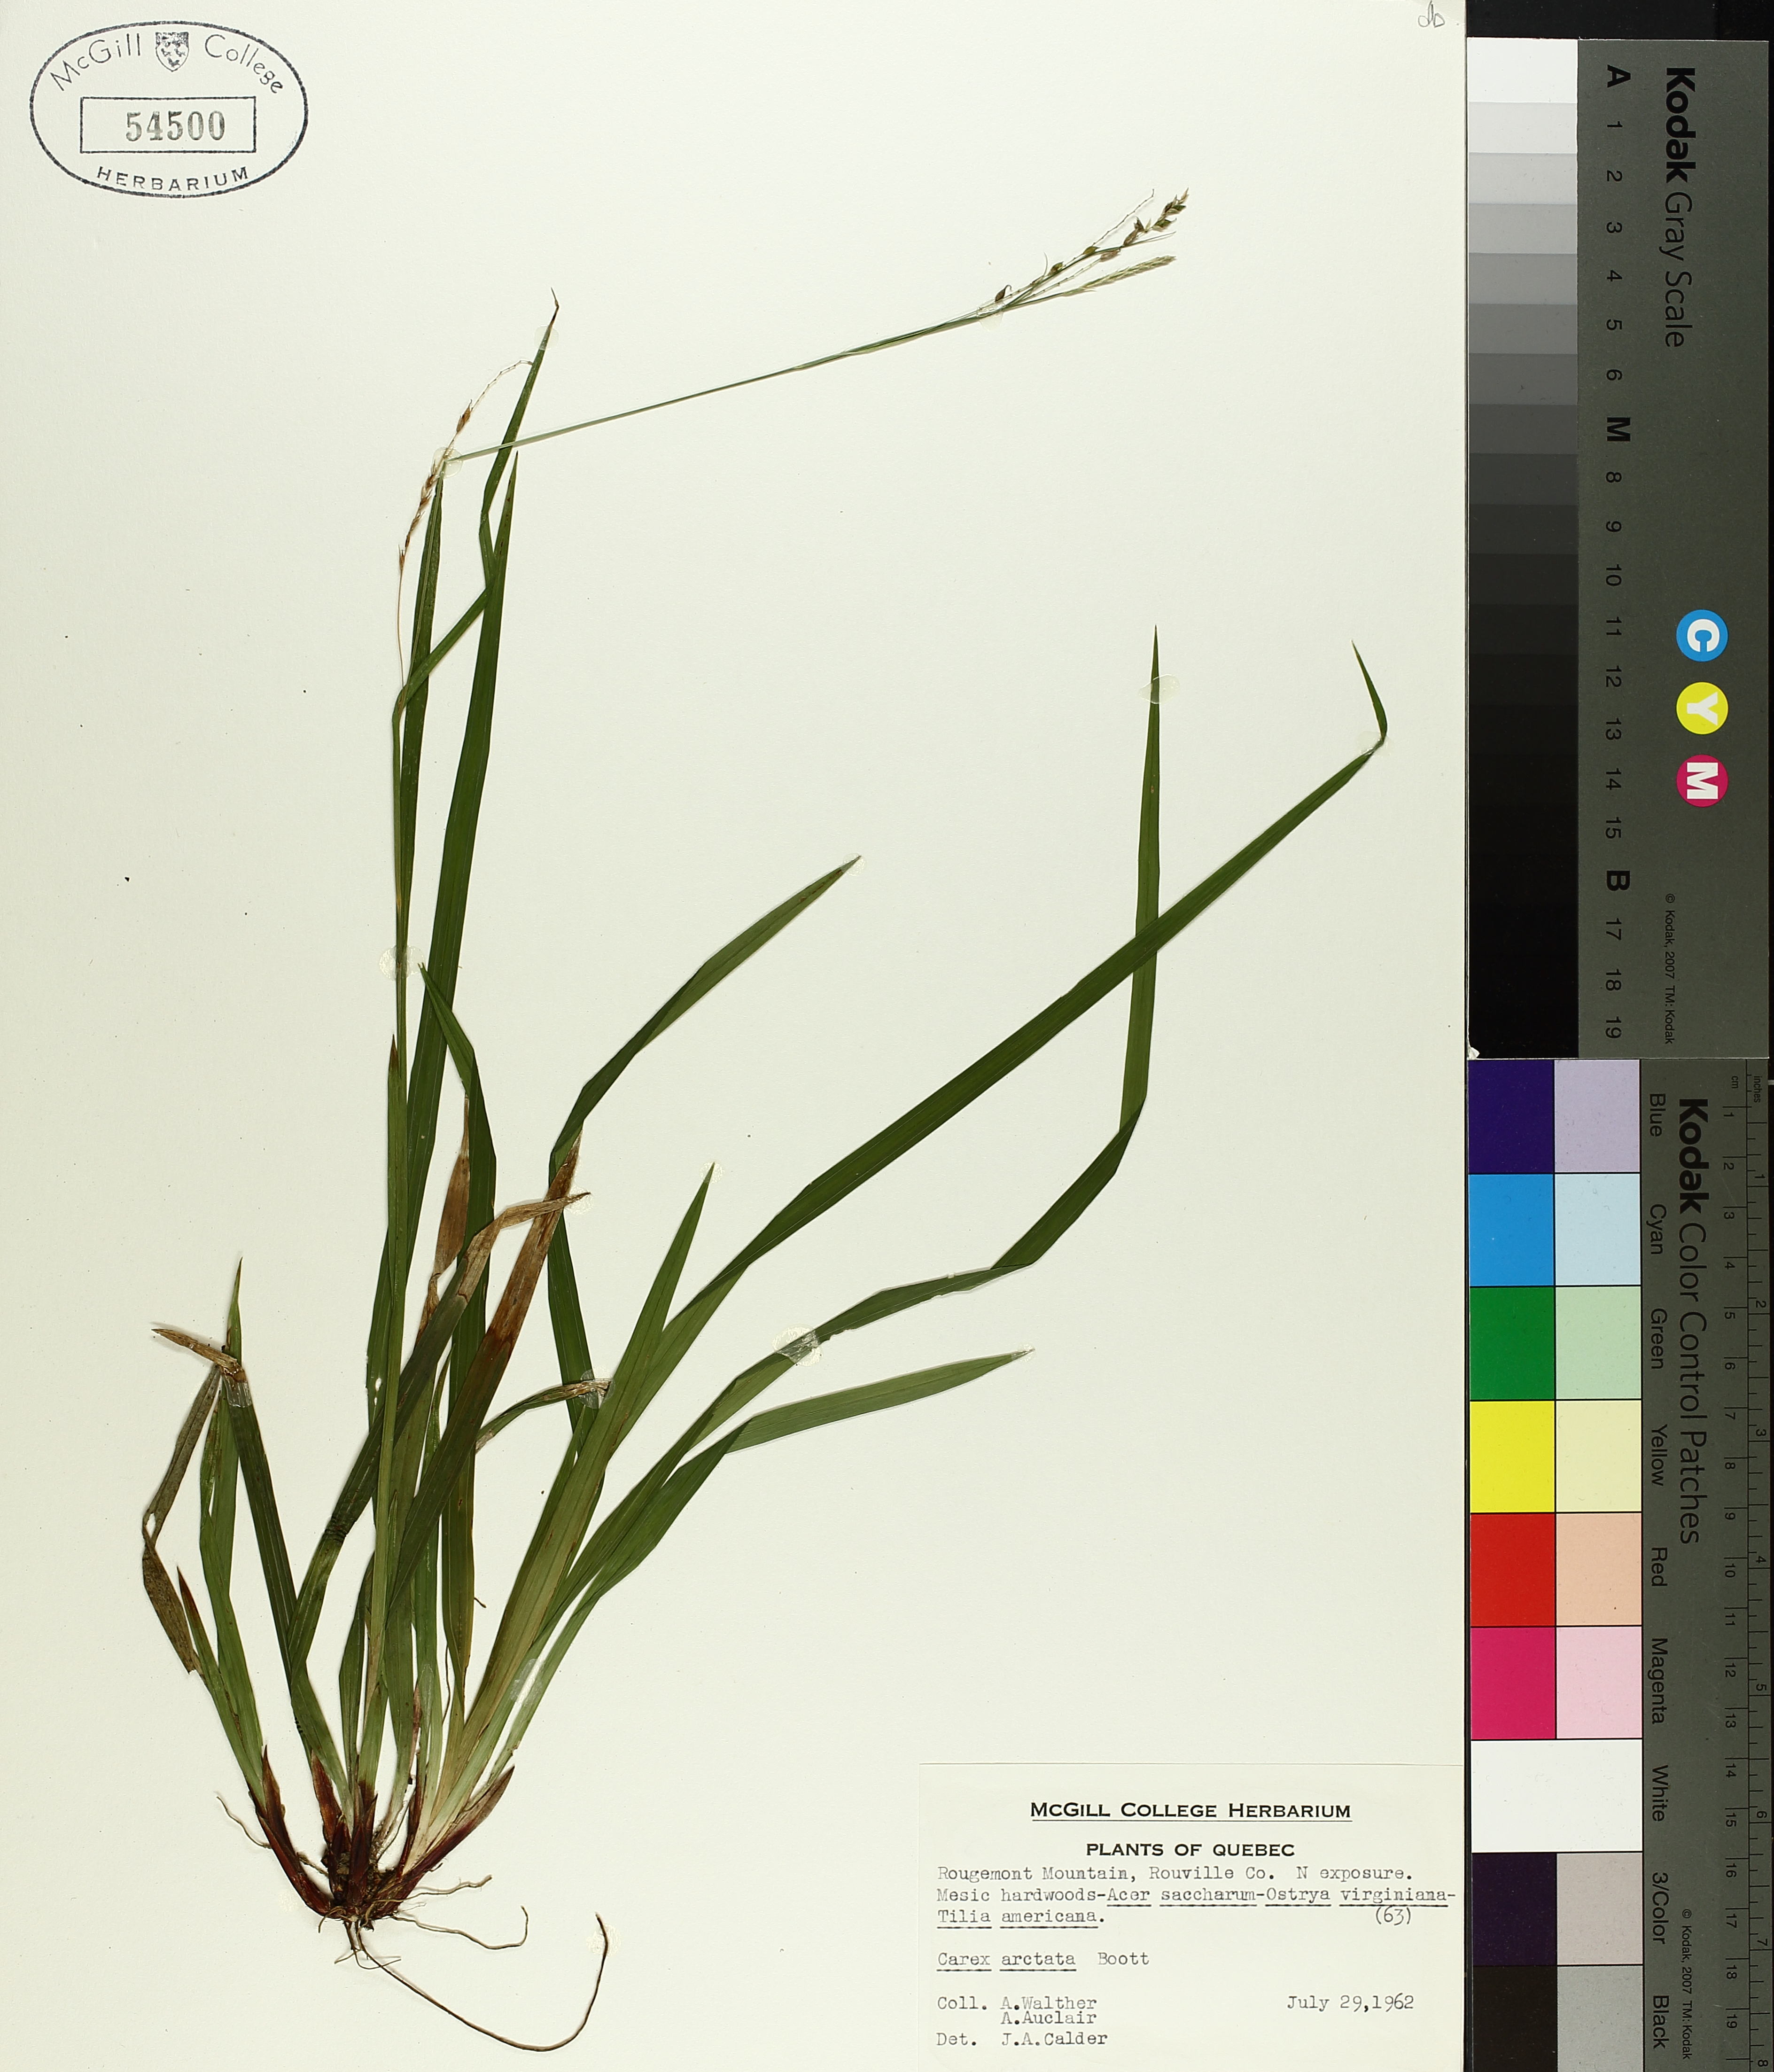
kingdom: Plantae
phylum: Tracheophyta
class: Liliopsida
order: Poales
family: Cyperaceae
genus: Carex
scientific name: Carex arctata
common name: Black sedge
